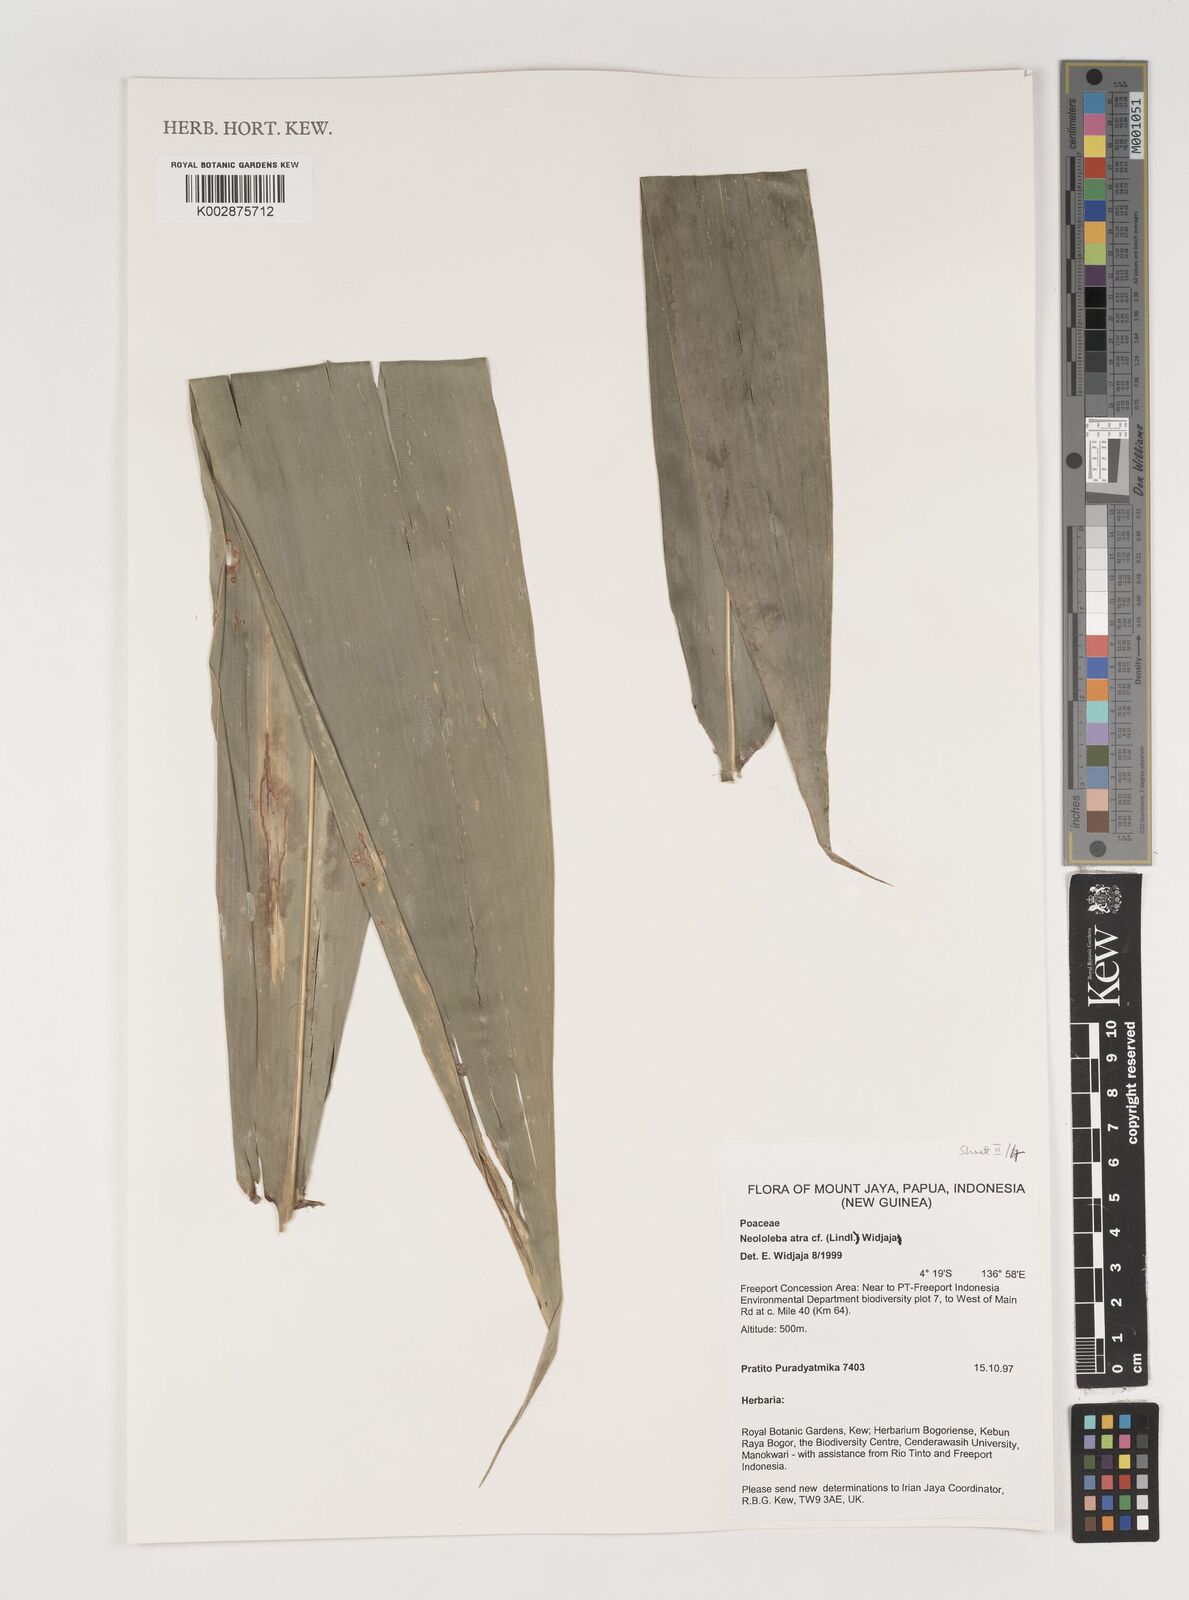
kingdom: Plantae
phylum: Tracheophyta
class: Liliopsida
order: Poales
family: Poaceae
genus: Neololeba
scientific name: Neololeba atra
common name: Cape bamboo
